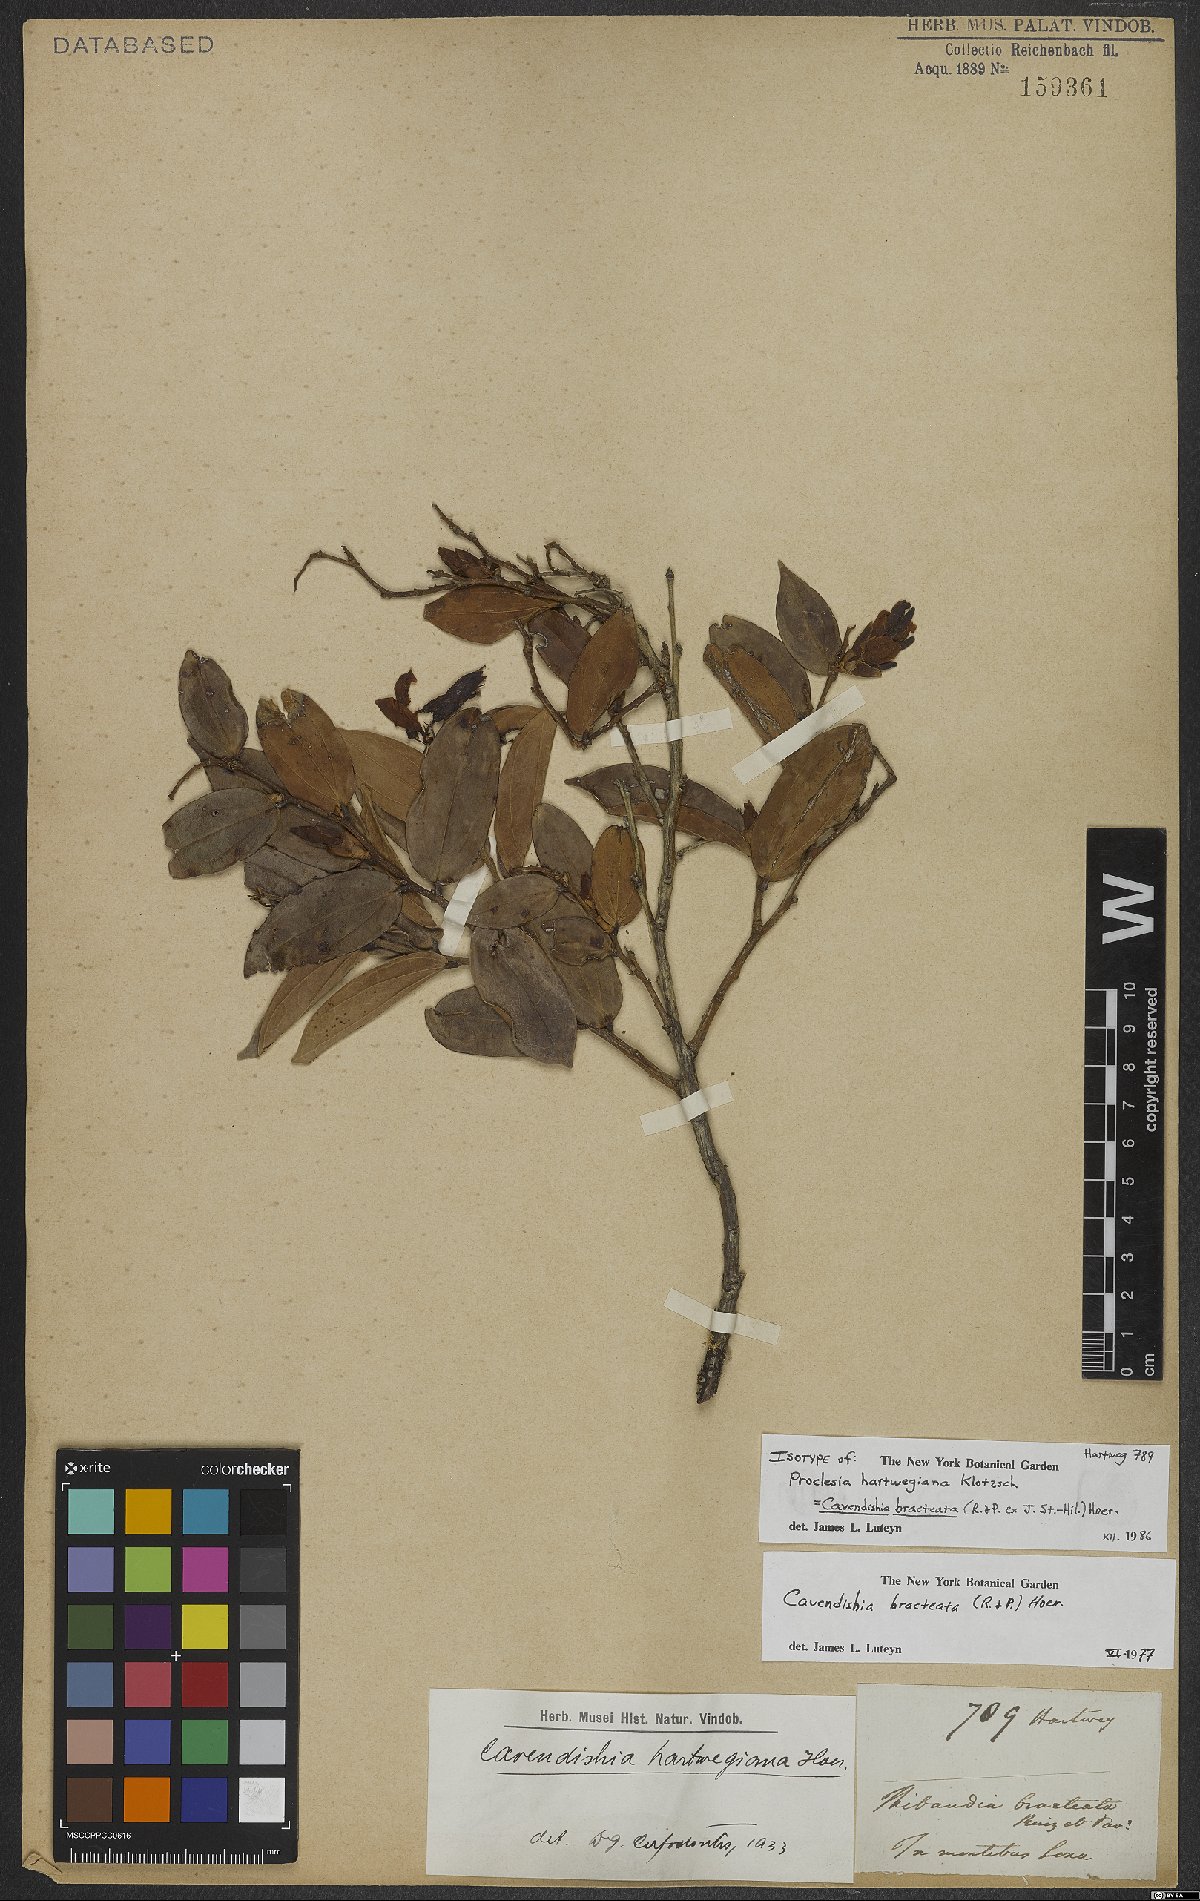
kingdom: Plantae
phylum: Tracheophyta
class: Magnoliopsida
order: Ericales
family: Ericaceae
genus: Cavendishia
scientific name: Cavendishia bracteata
